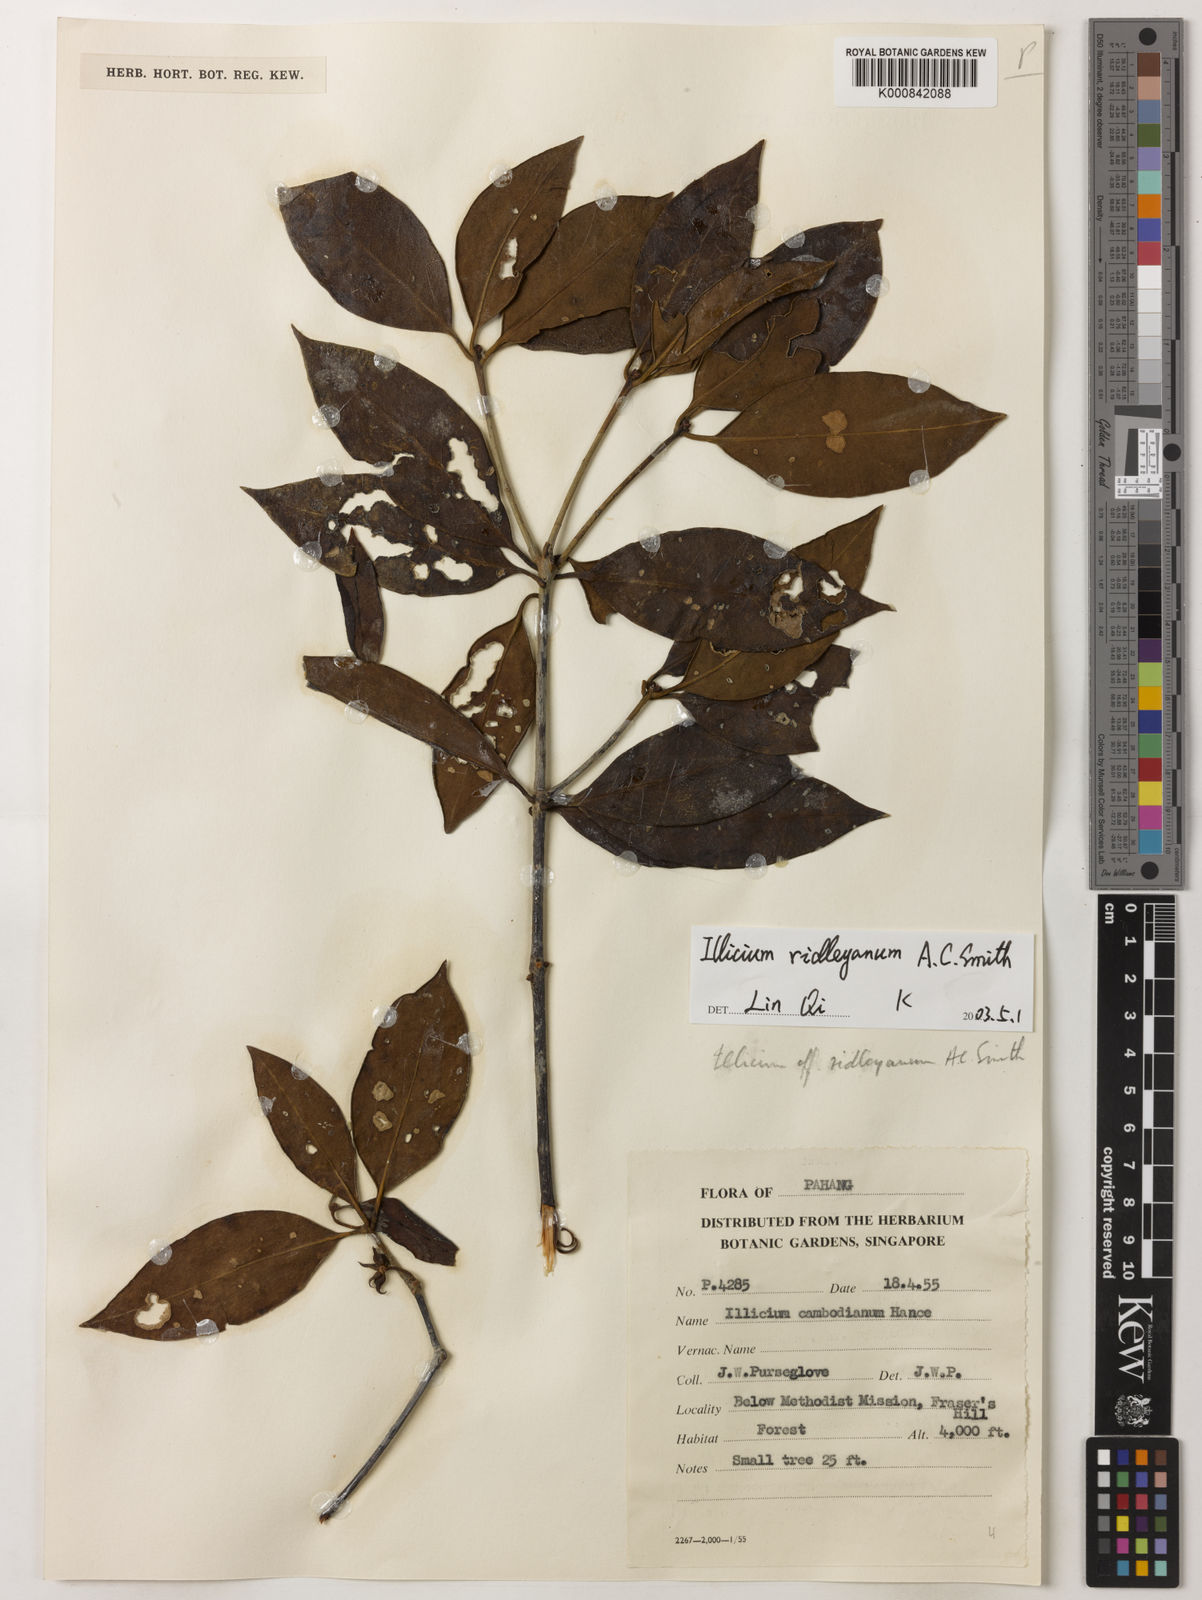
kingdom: Plantae
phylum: Tracheophyta
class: Magnoliopsida
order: Austrobaileyales
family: Schisandraceae
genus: Illicium
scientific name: Illicium ridleyanum
